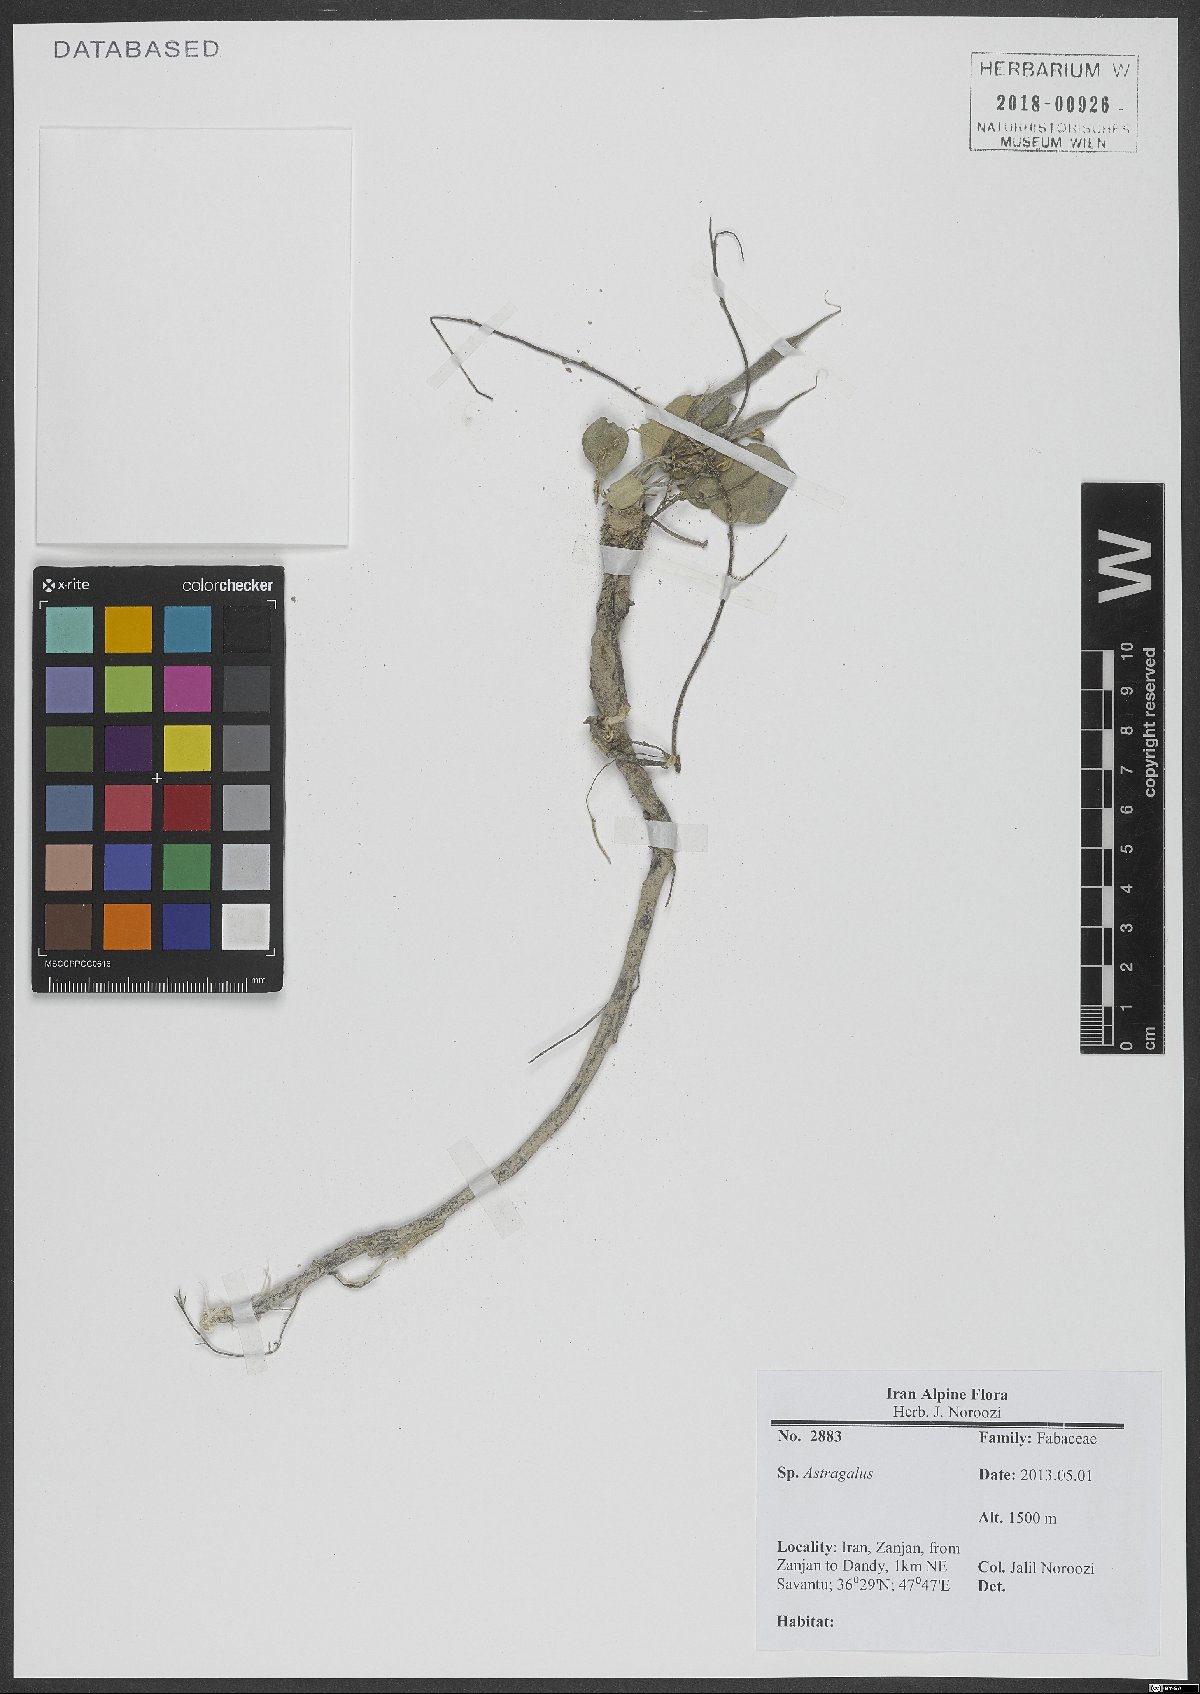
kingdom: Plantae
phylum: Tracheophyta
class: Magnoliopsida
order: Fabales
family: Fabaceae
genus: Astragalus
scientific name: Astragalus
